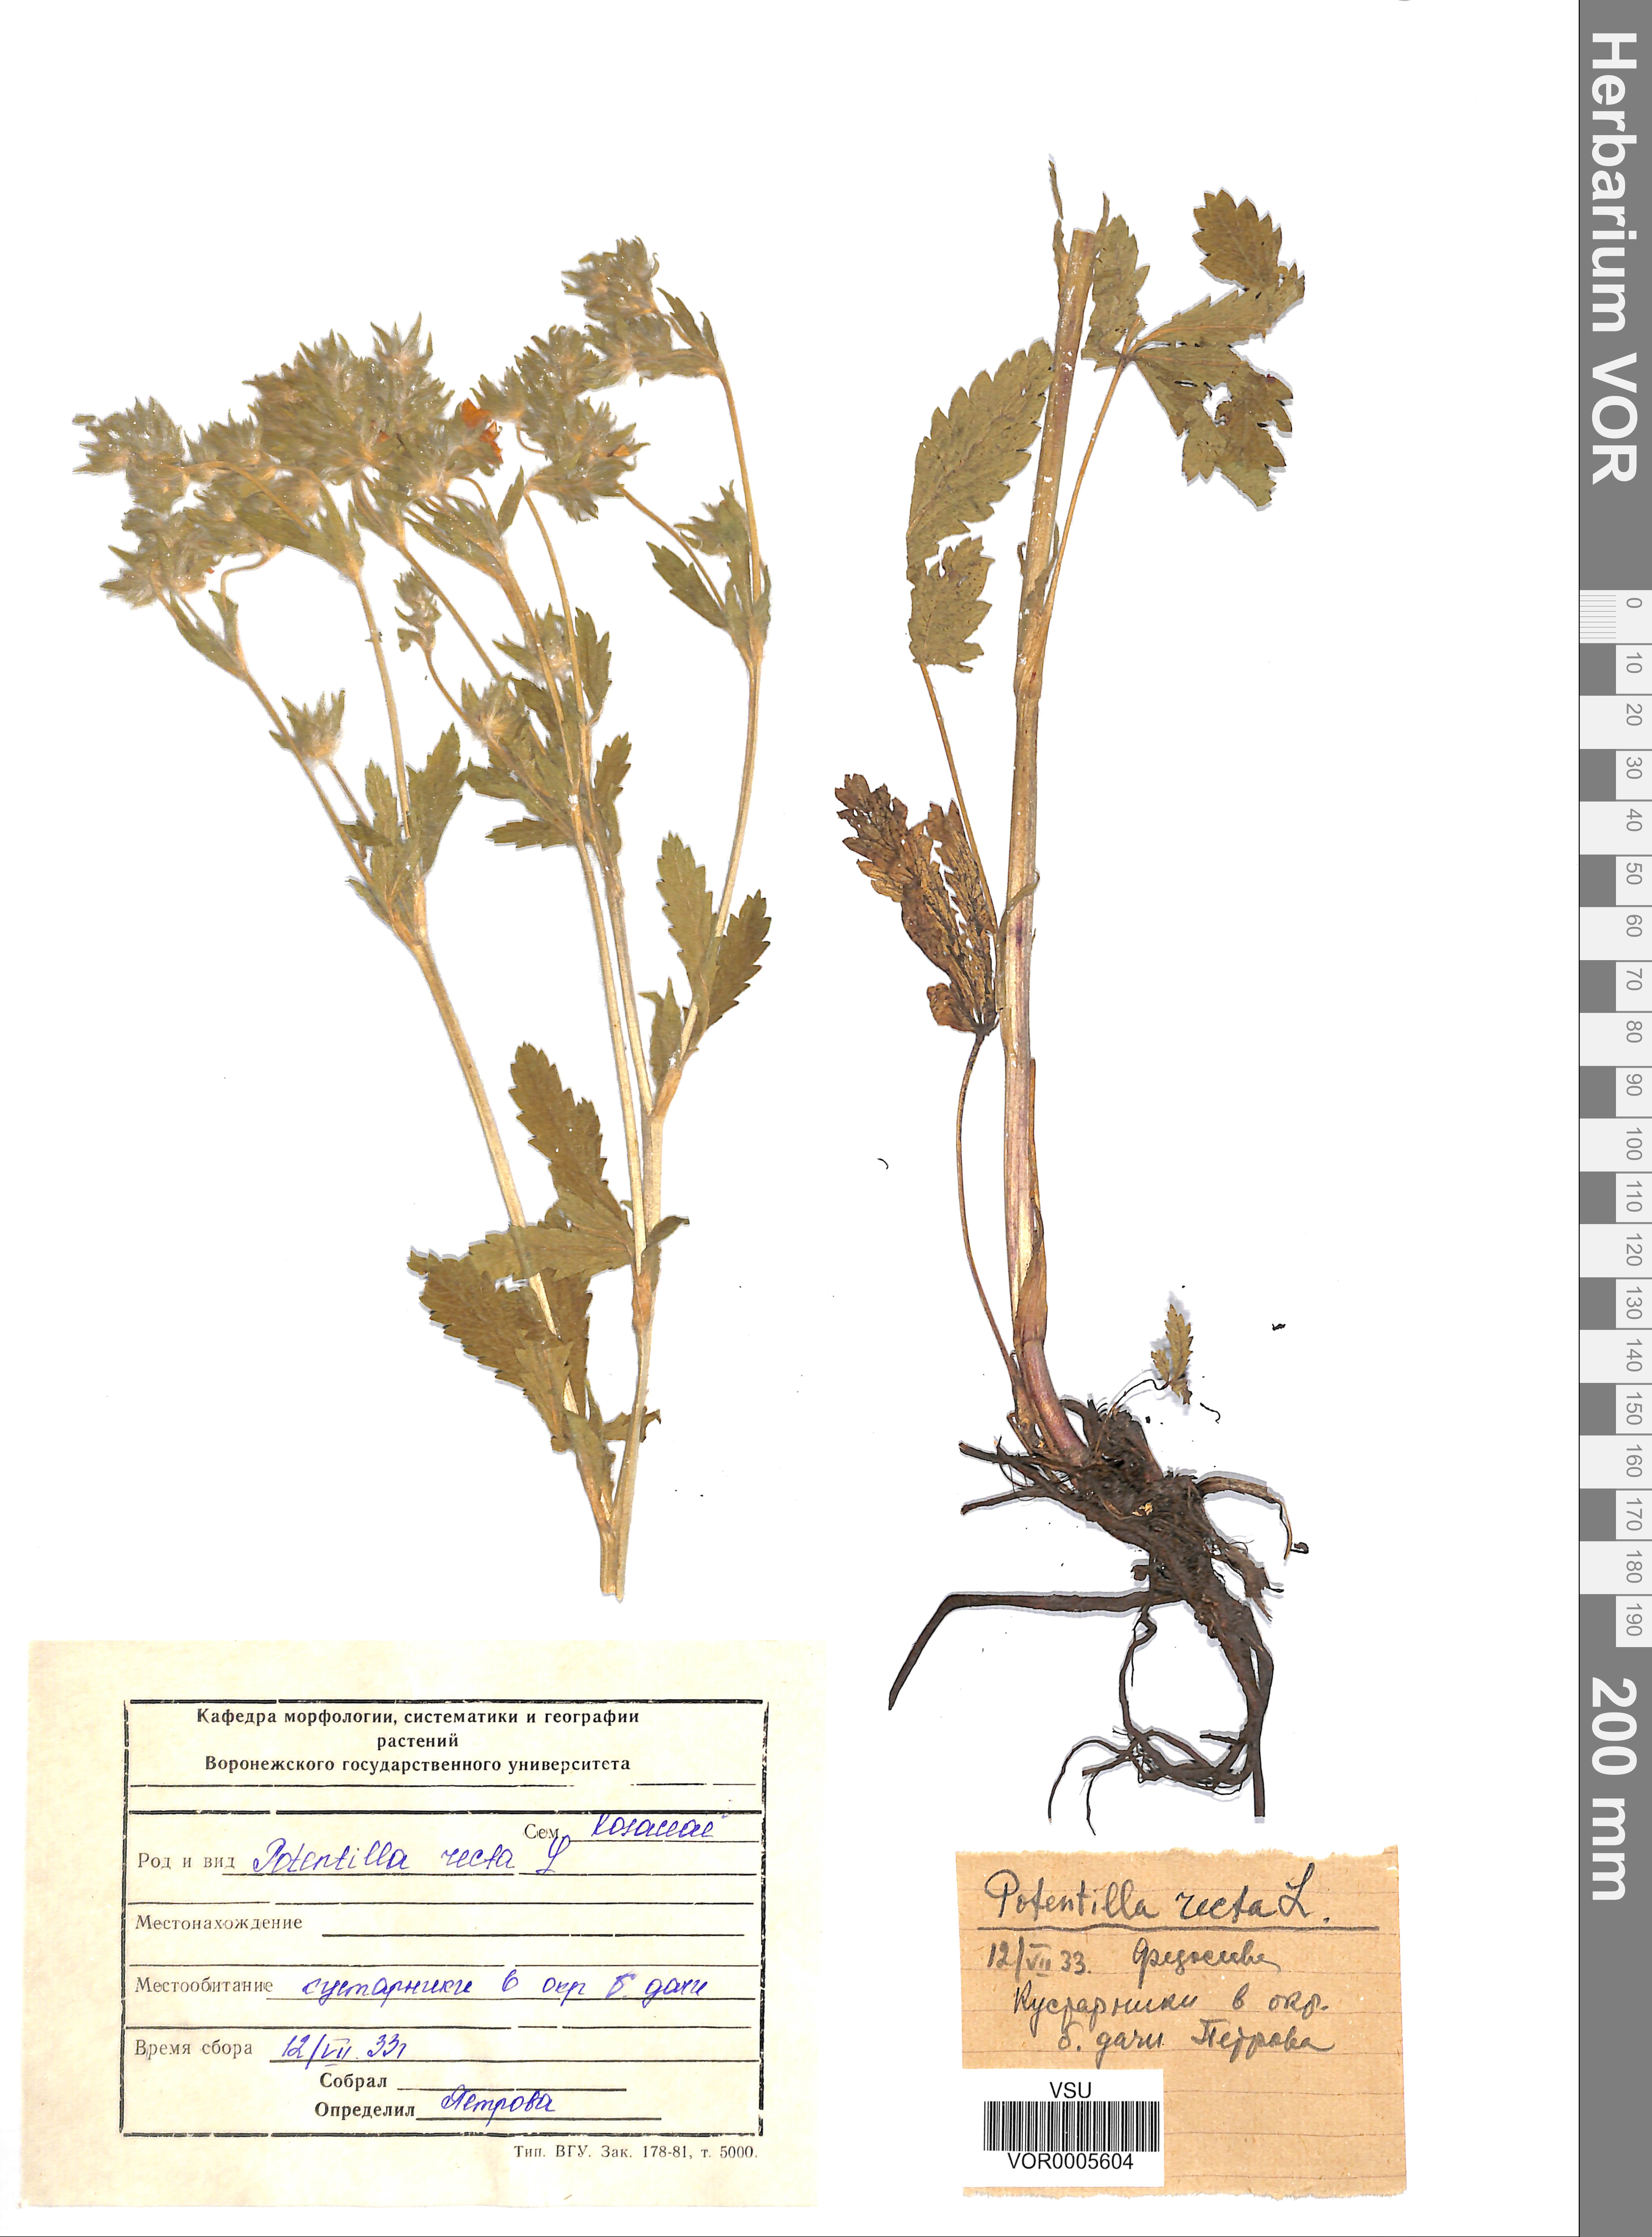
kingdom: Plantae
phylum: Tracheophyta
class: Magnoliopsida
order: Rosales
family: Rosaceae
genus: Potentilla
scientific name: Potentilla recta
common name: Sulphur cinquefoil
